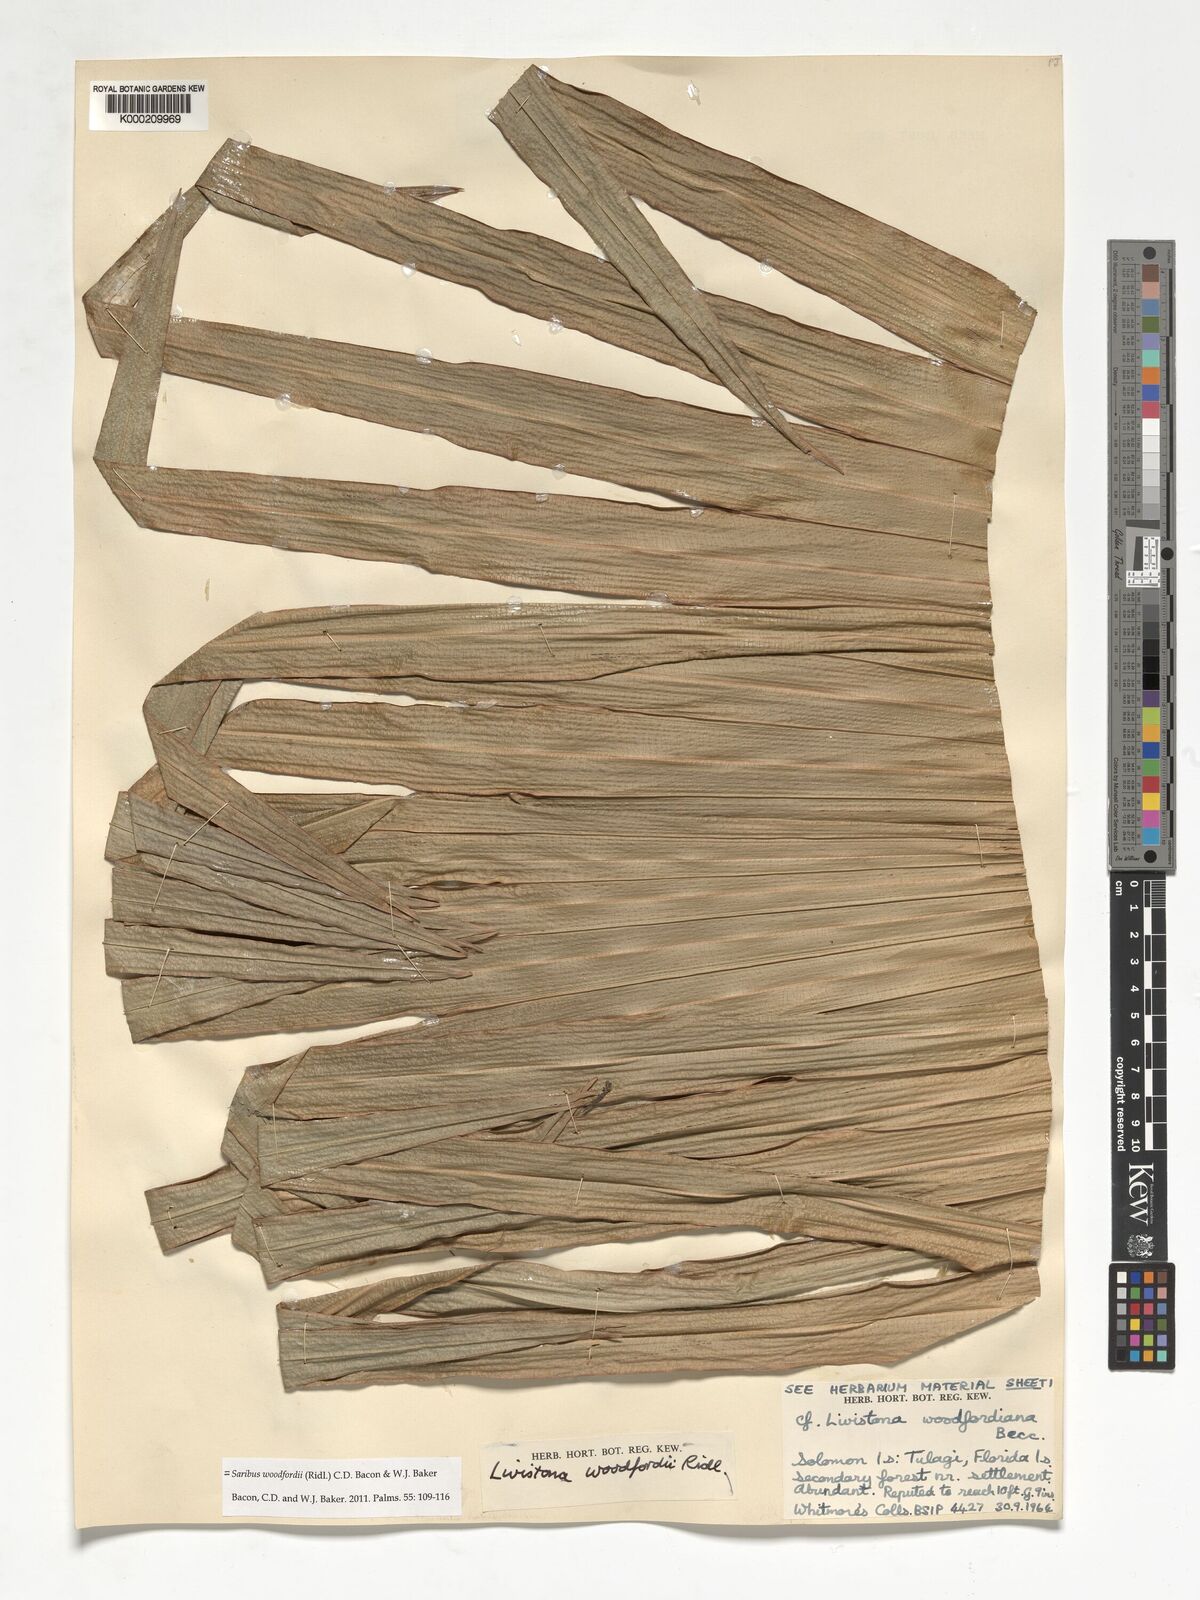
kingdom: Plantae
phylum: Tracheophyta
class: Liliopsida
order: Arecales
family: Arecaceae
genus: Saribus
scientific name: Saribus woodfordii
